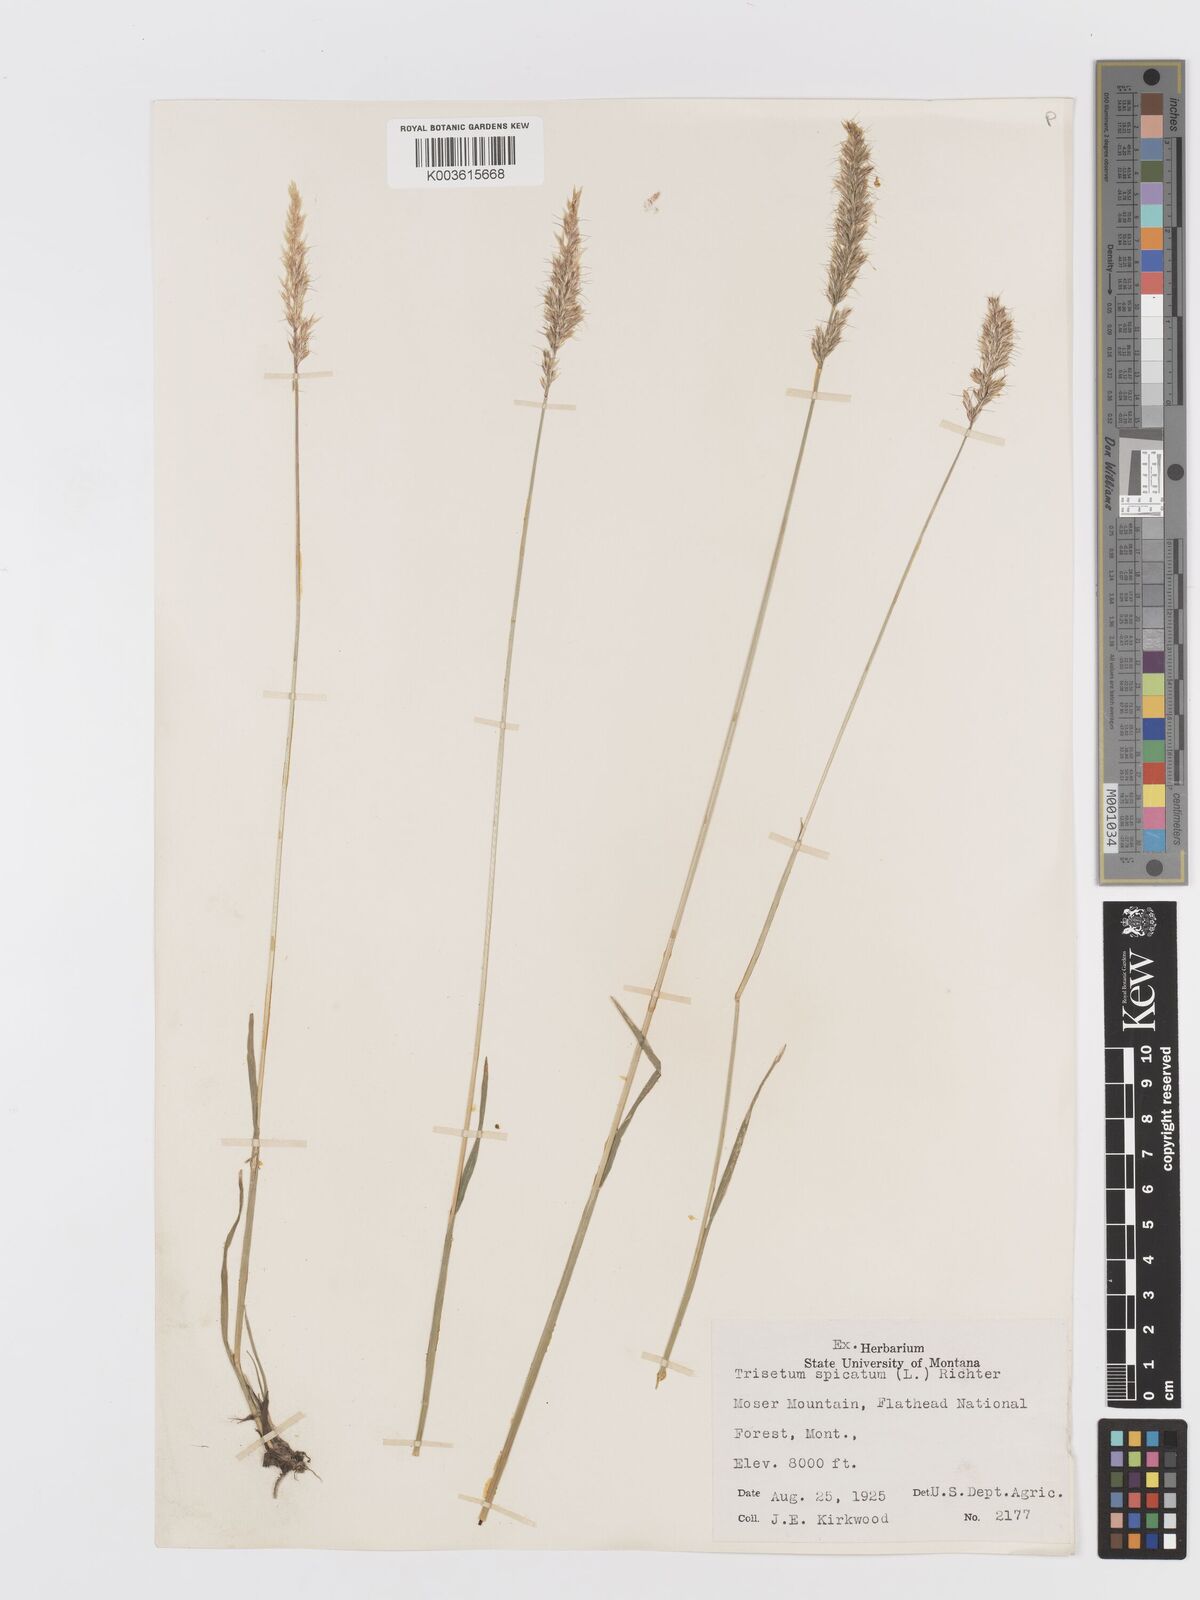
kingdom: Plantae
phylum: Tracheophyta
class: Liliopsida
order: Poales
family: Poaceae
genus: Koeleria
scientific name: Koeleria spicata
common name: Mountain trisetum
